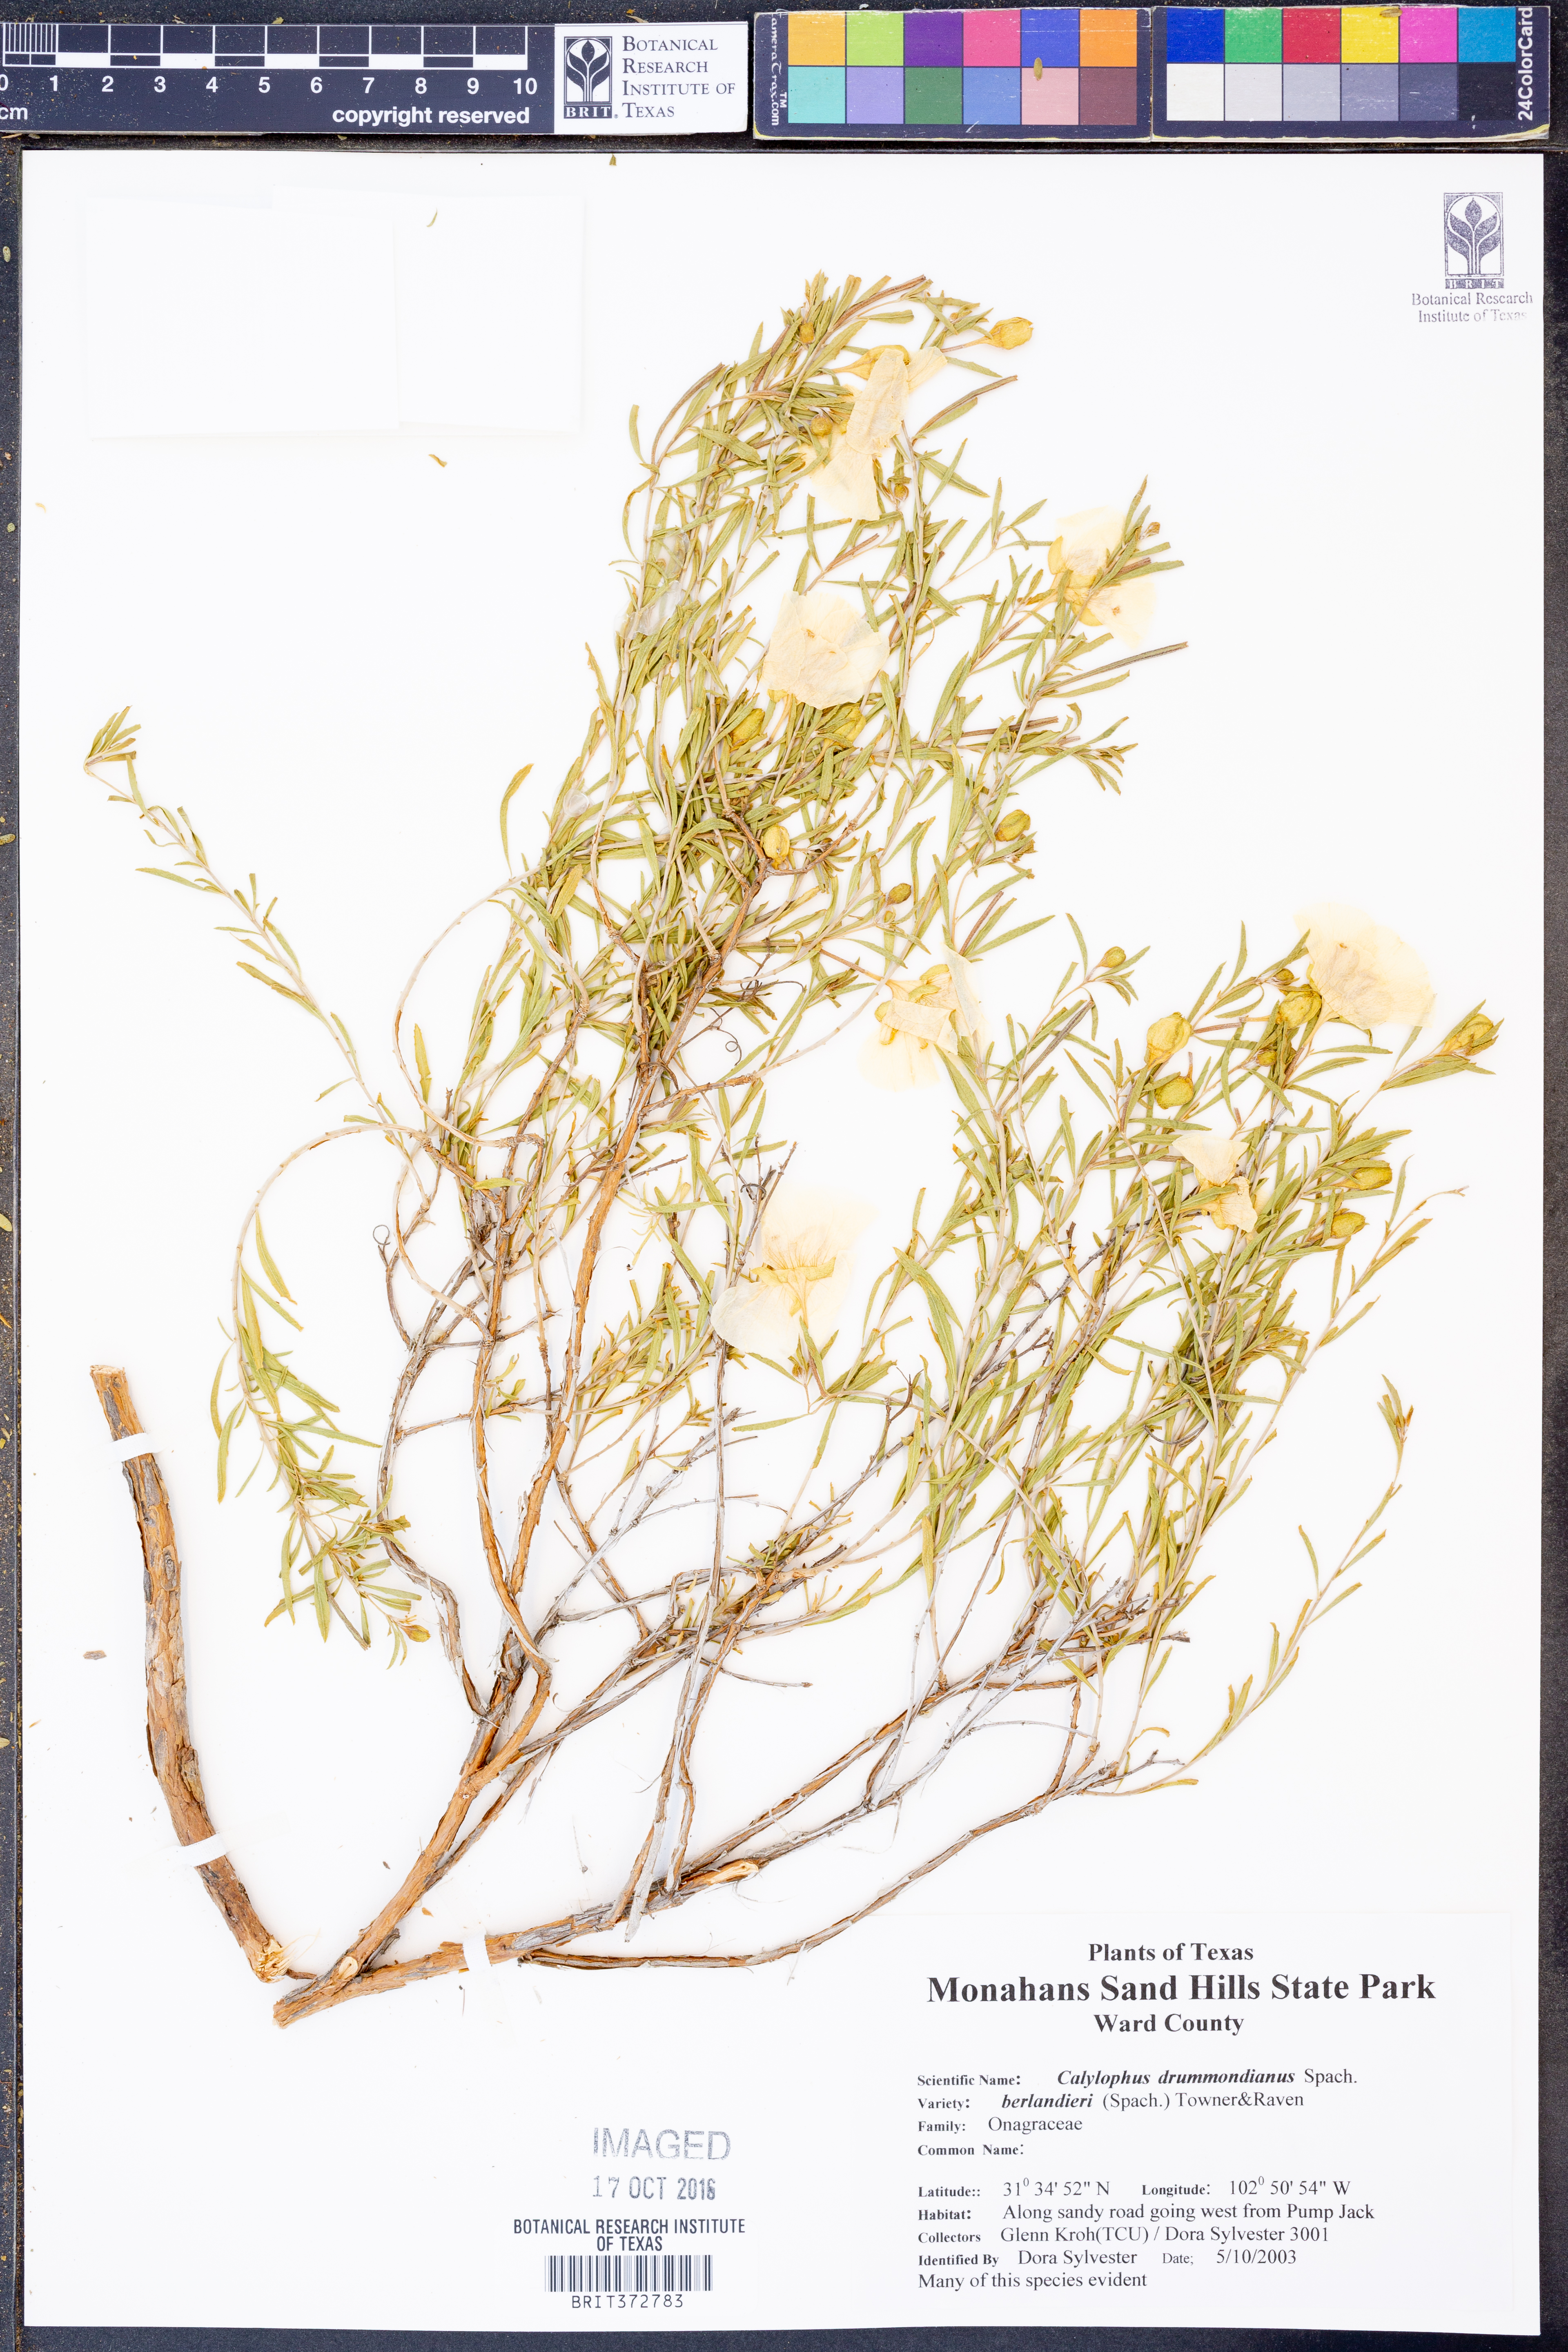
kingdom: Plantae
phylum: Tracheophyta
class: Magnoliopsida
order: Myrtales
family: Onagraceae
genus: Oenothera
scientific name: Oenothera capillifolia
